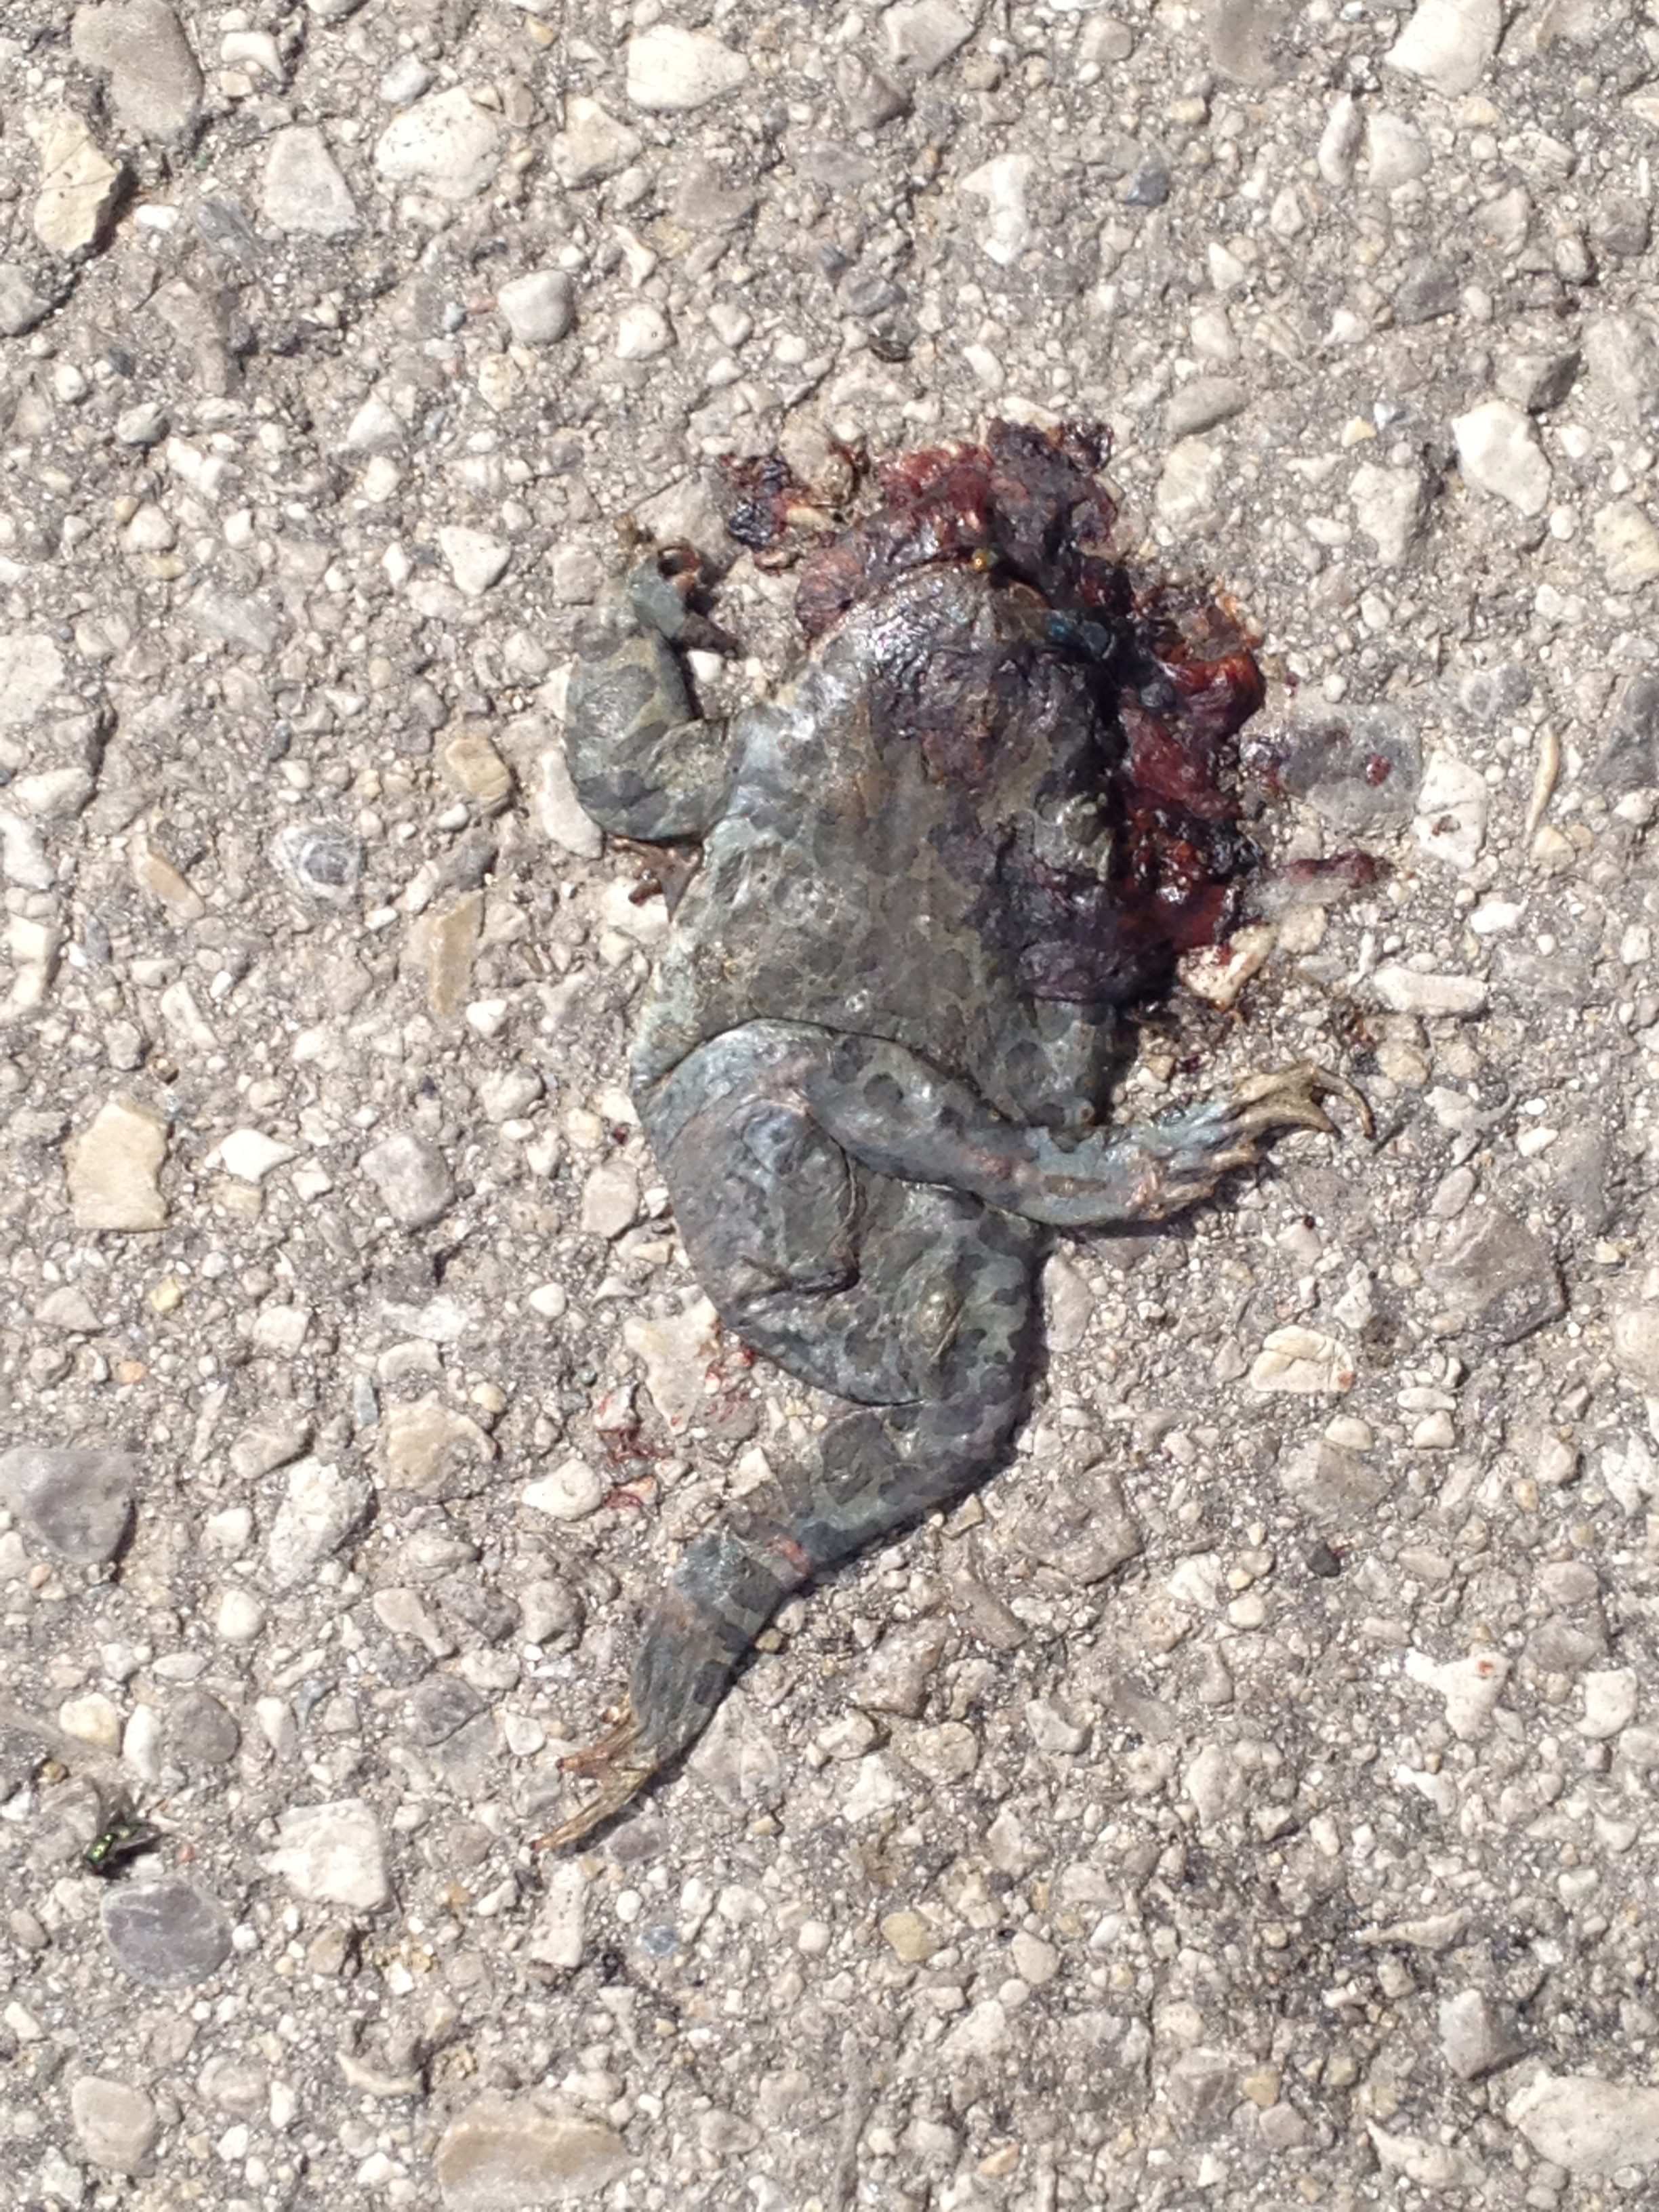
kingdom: Animalia
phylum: Chordata
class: Amphibia
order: Anura
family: Bufonidae
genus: Bufotes
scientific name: Bufotes viridis
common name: European green toad
